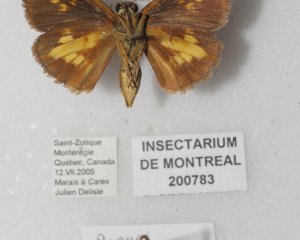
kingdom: Animalia
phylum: Arthropoda
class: Insecta
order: Lepidoptera
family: Hesperiidae
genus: Poanes
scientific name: Poanes massasoit
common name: Mulberry Wing
